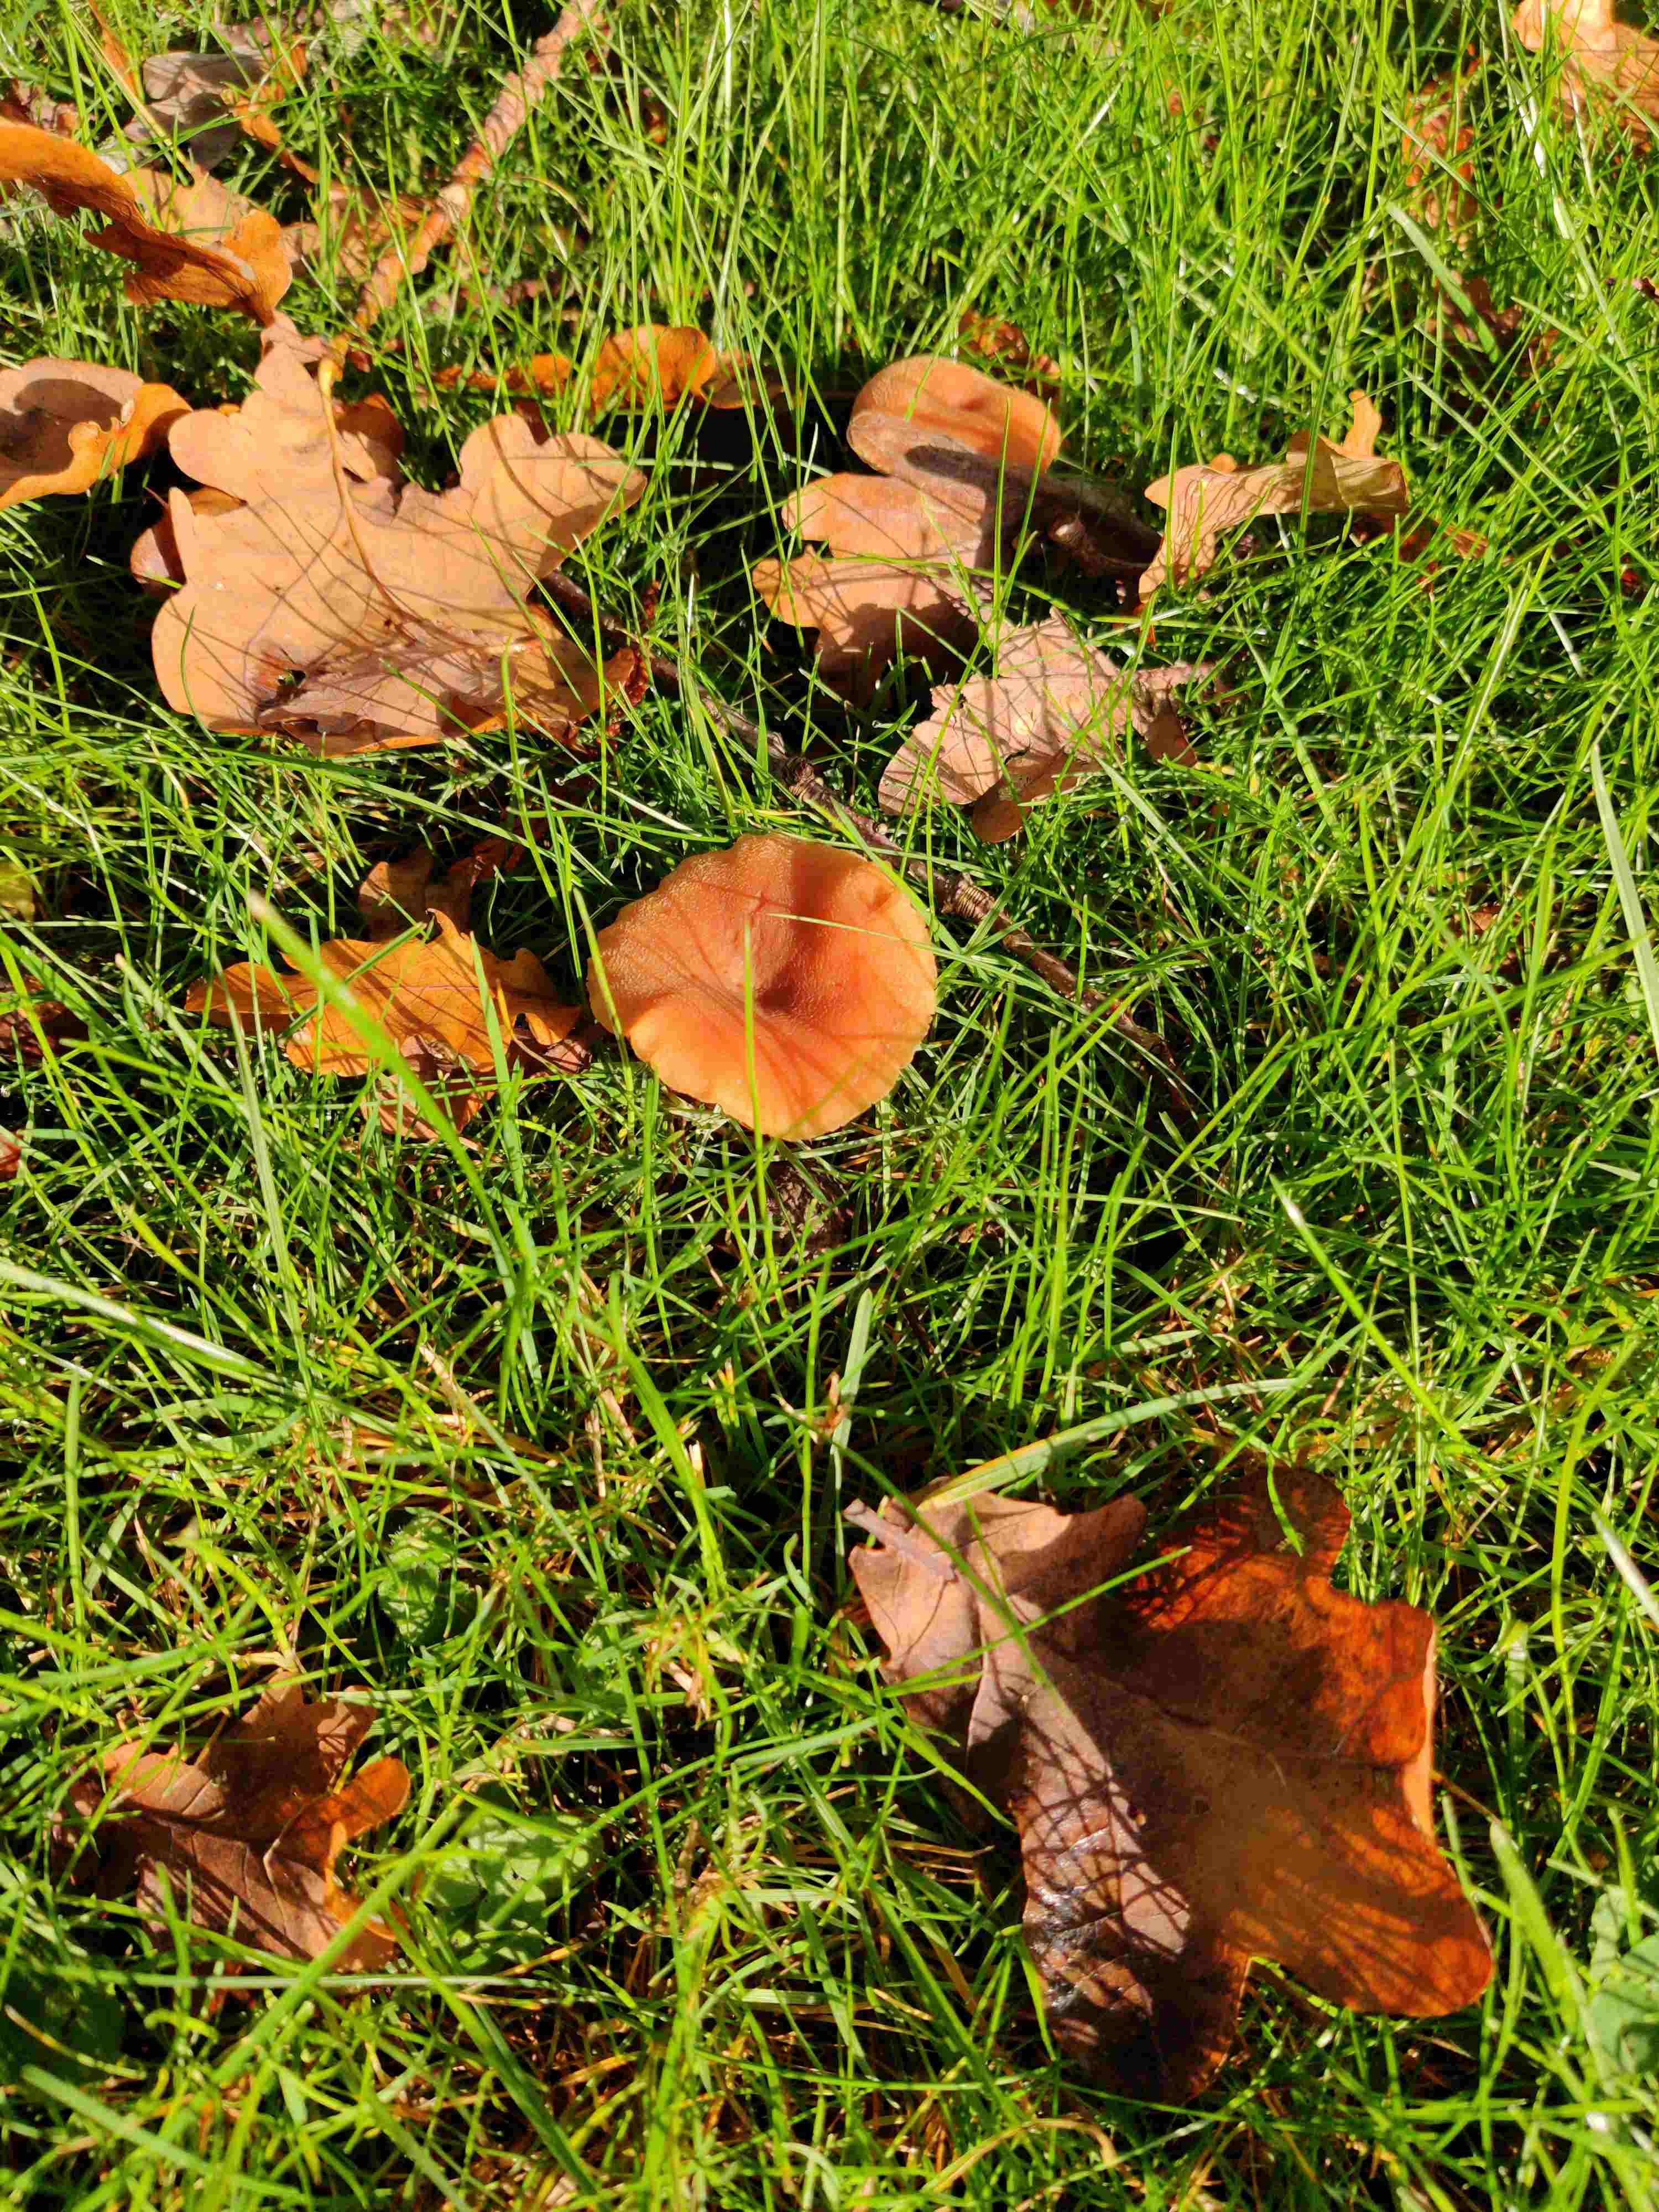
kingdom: Fungi
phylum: Basidiomycota
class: Agaricomycetes
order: Agaricales
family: Hydnangiaceae
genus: Laccaria
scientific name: Laccaria
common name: ametysthat
